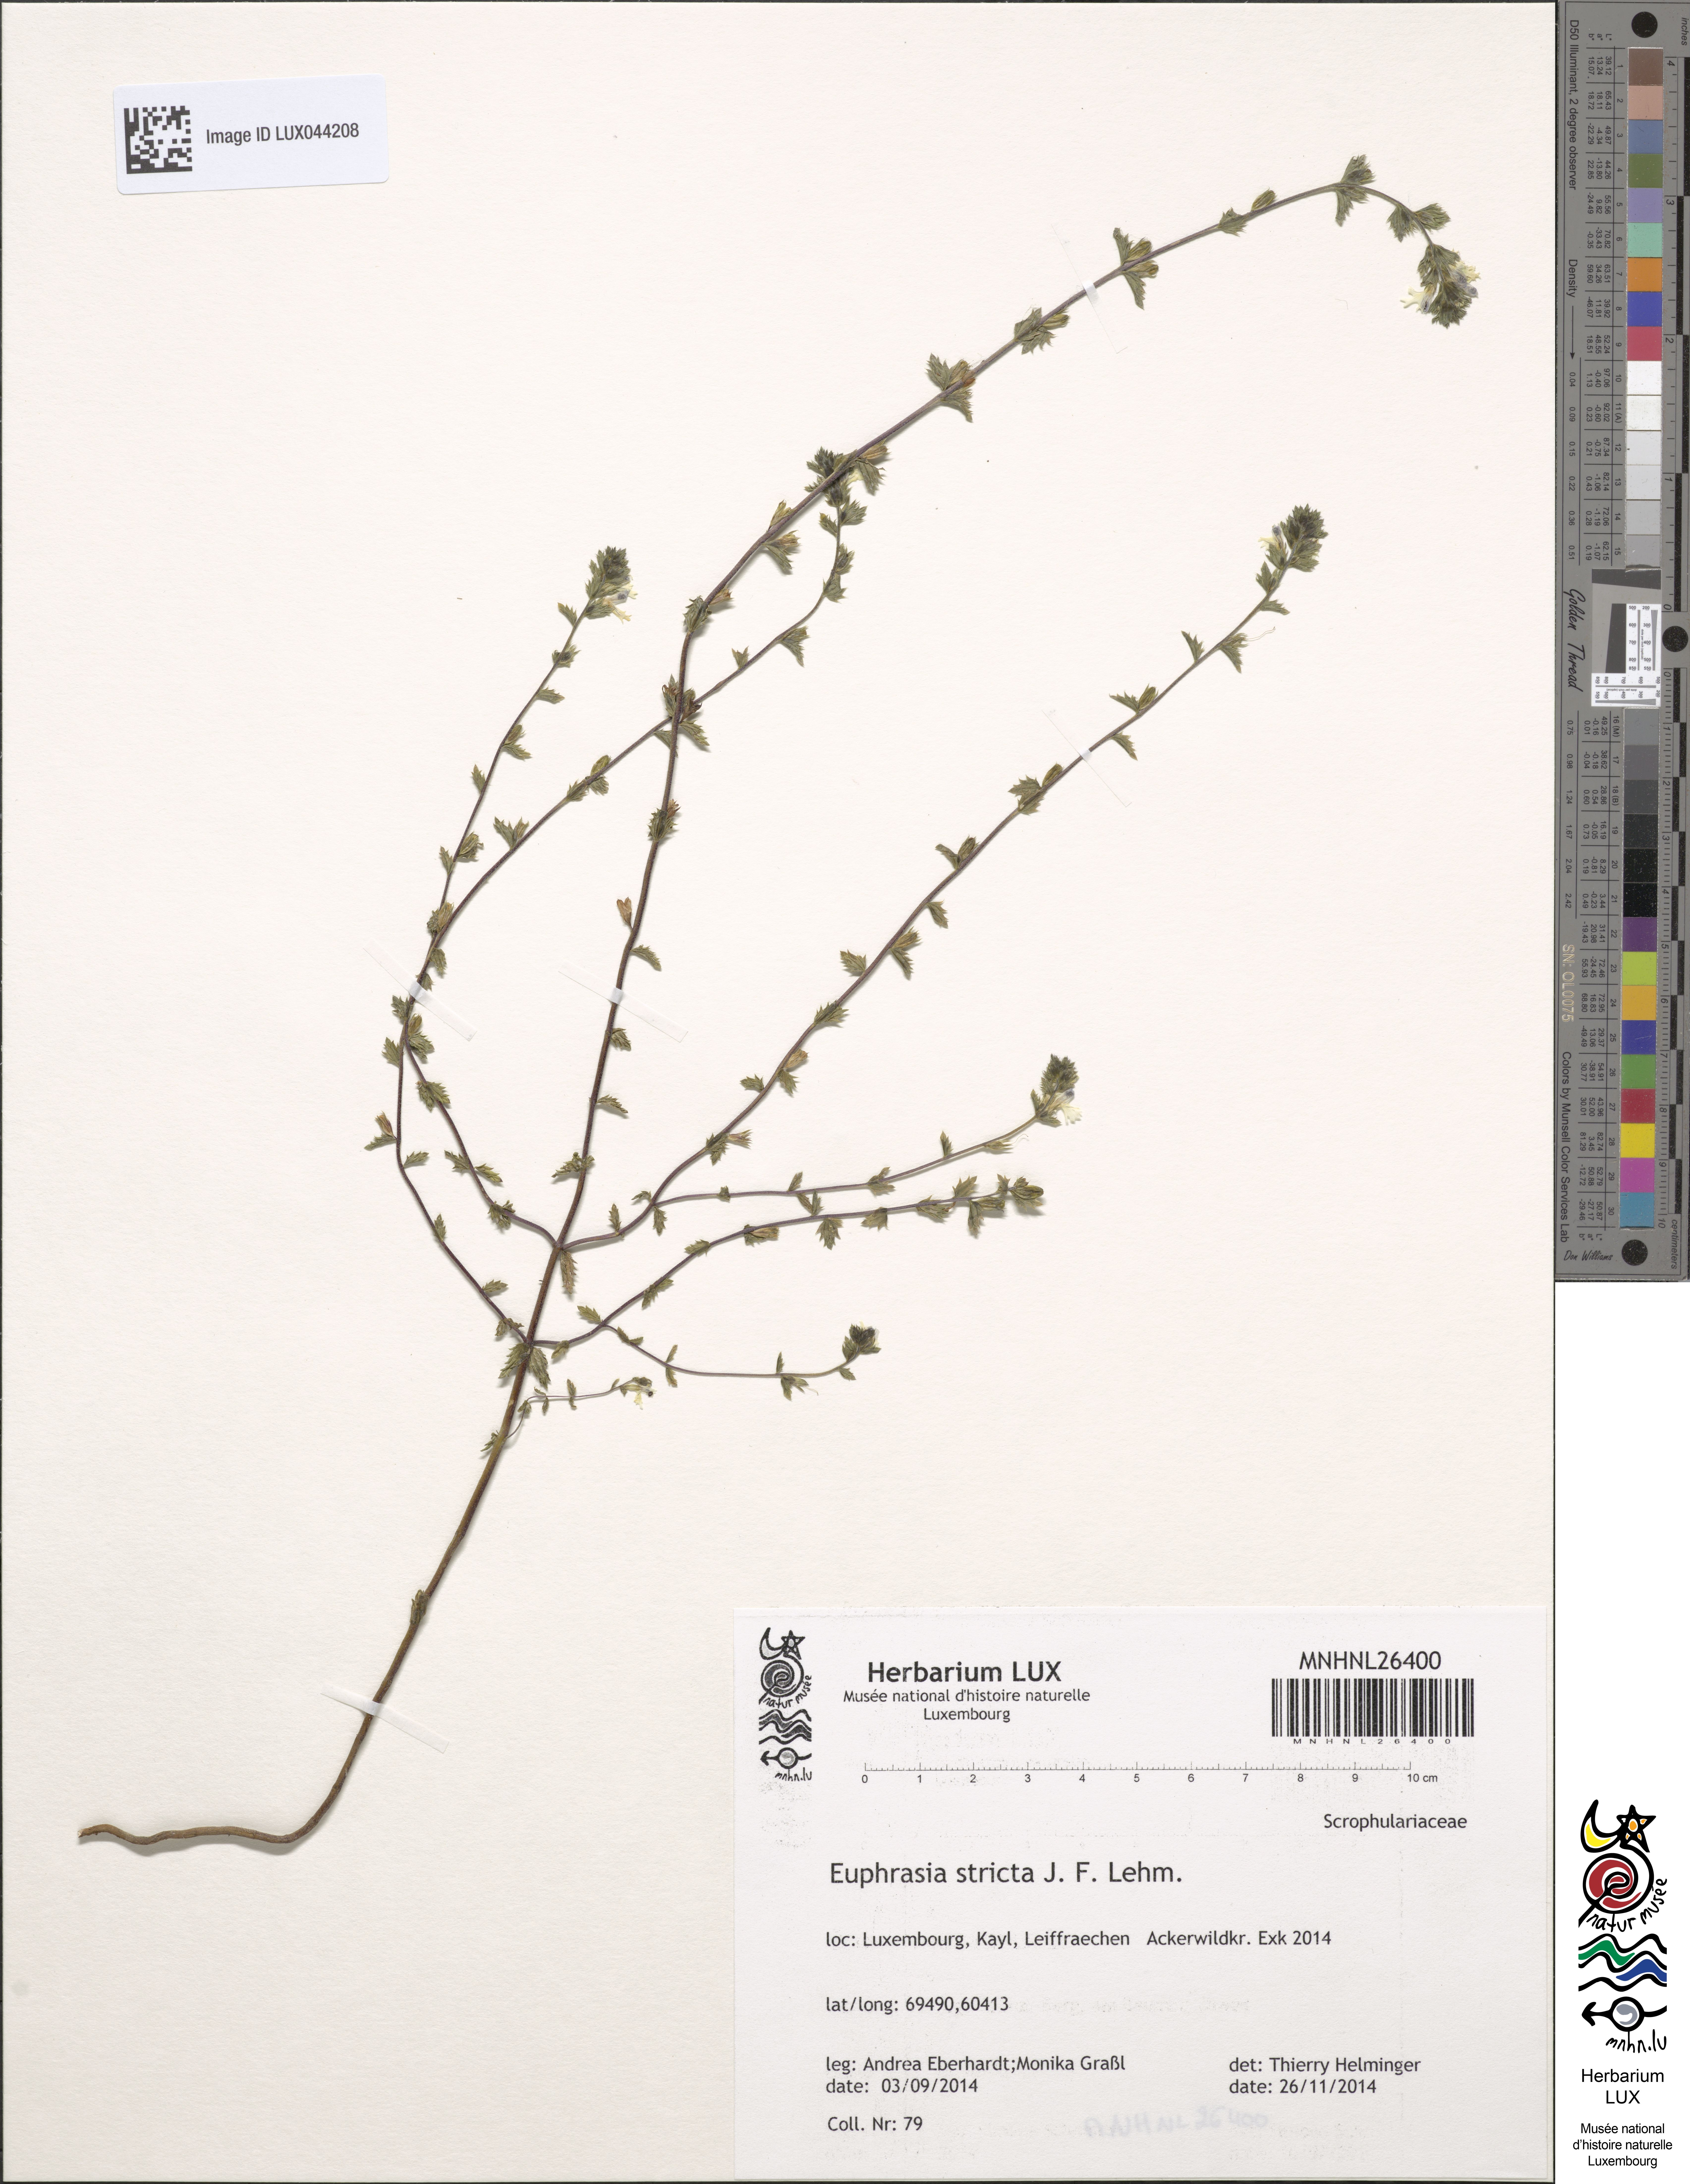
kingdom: Plantae
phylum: Tracheophyta
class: Magnoliopsida
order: Lamiales
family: Orobanchaceae
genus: Euphrasia
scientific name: Euphrasia stricta
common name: Drug eyebright
